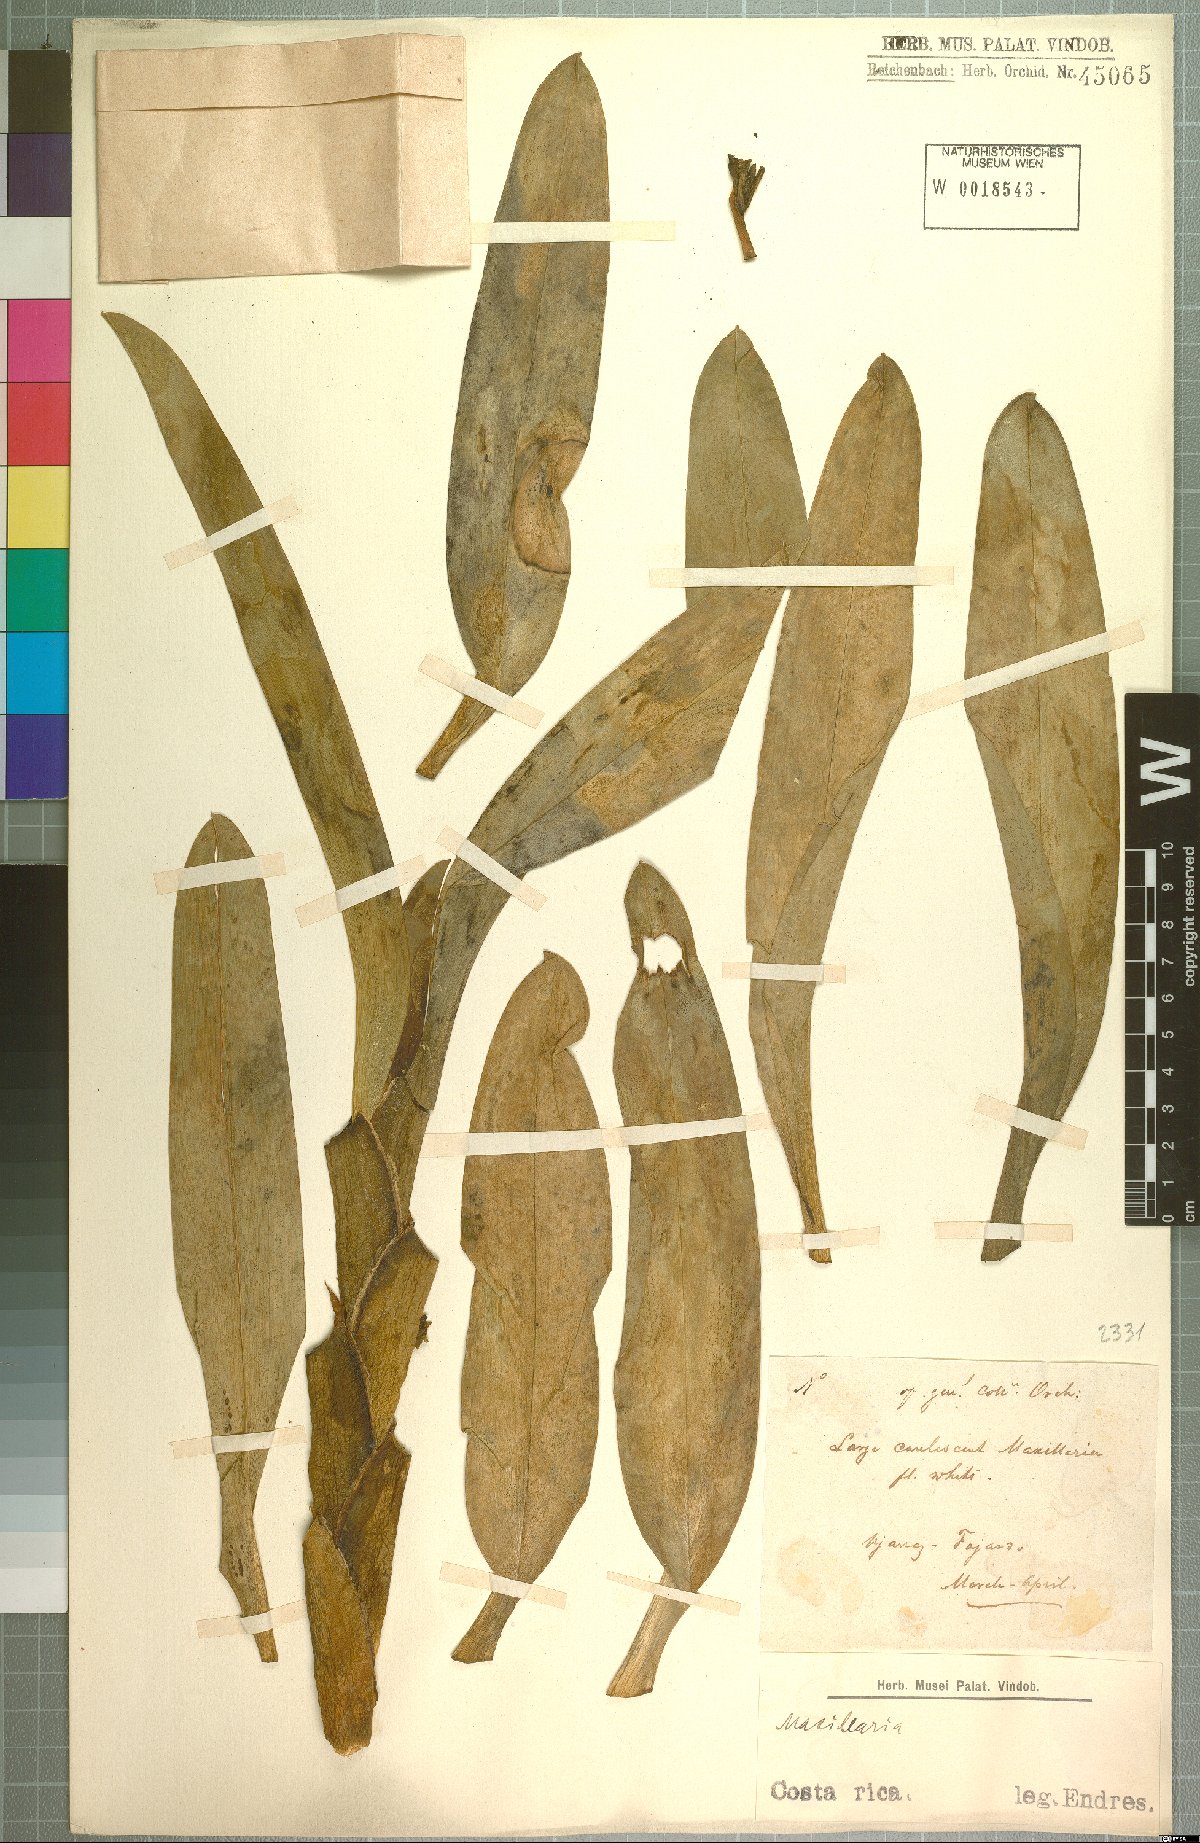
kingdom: Plantae
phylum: Tracheophyta
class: Liliopsida
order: Asparagales
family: Orchidaceae
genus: Maxillaria
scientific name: Maxillaria
